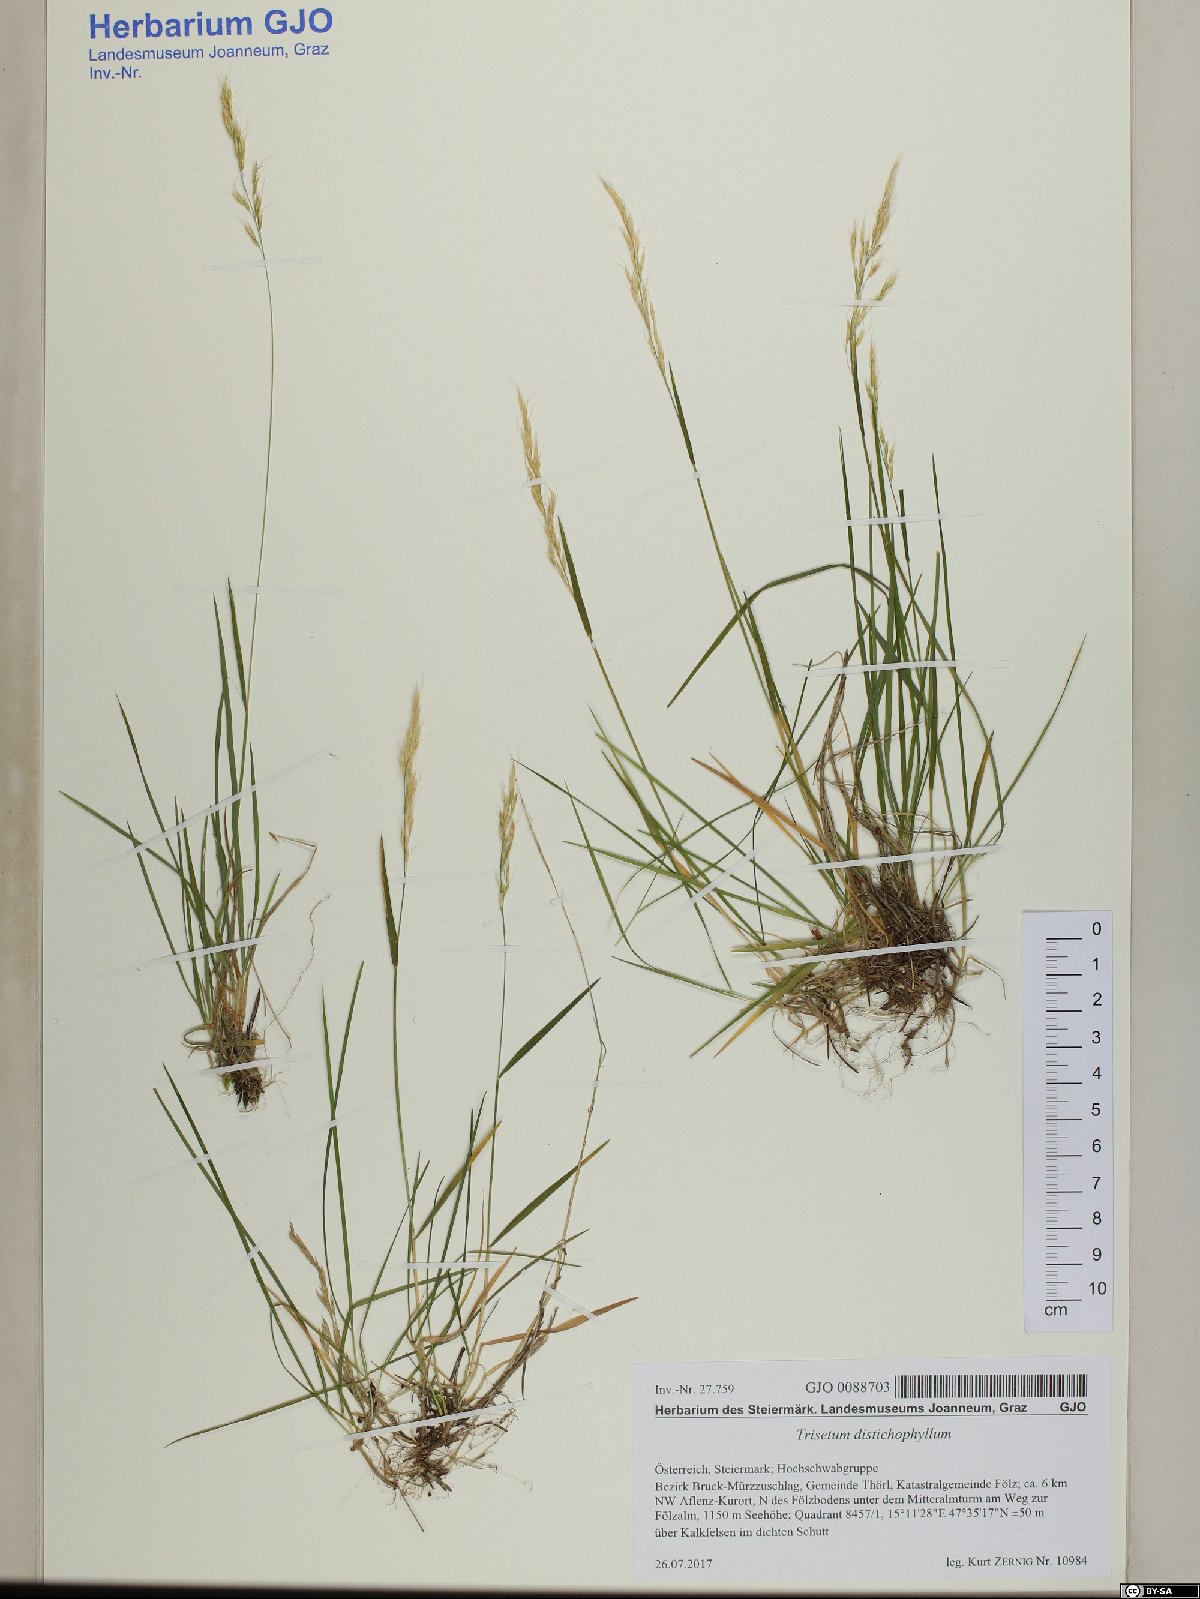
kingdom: Plantae
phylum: Tracheophyta
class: Liliopsida
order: Poales
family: Poaceae
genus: Acrospelion
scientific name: Acrospelion distichophyllum
